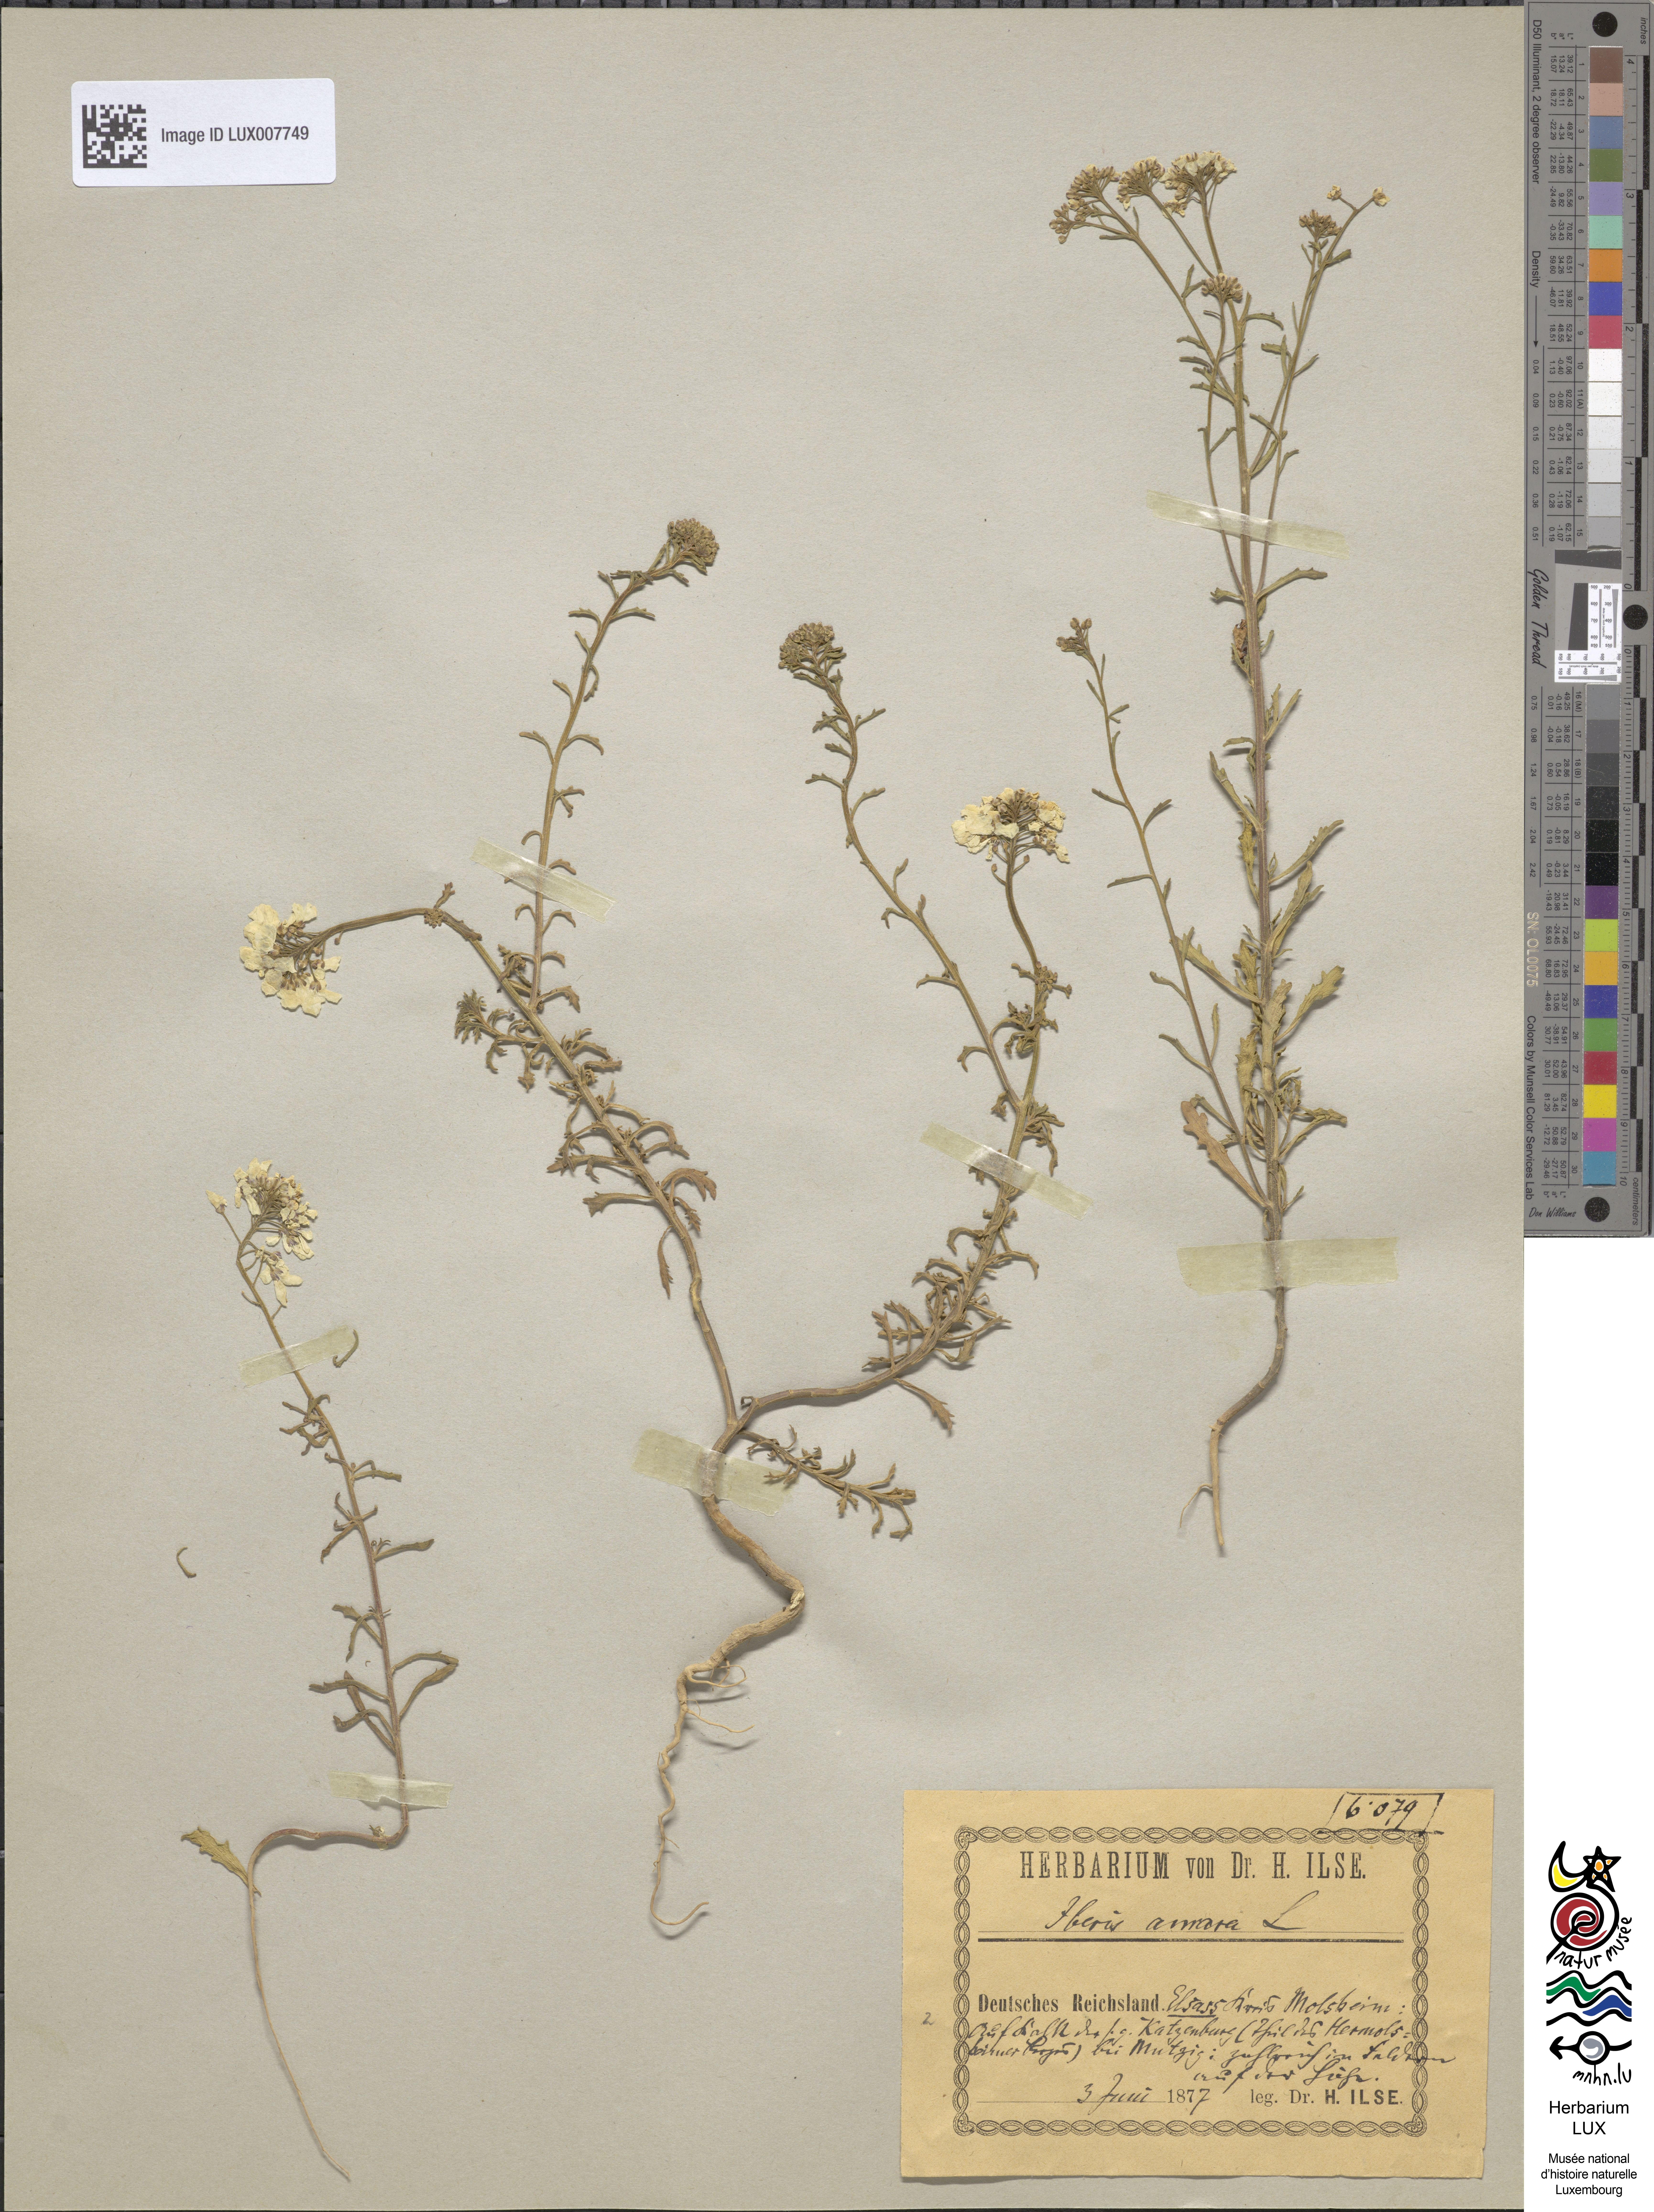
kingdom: Plantae
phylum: Tracheophyta
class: Magnoliopsida
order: Brassicales
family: Brassicaceae
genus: Iberis
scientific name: Iberis amara
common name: Annual candytuft
